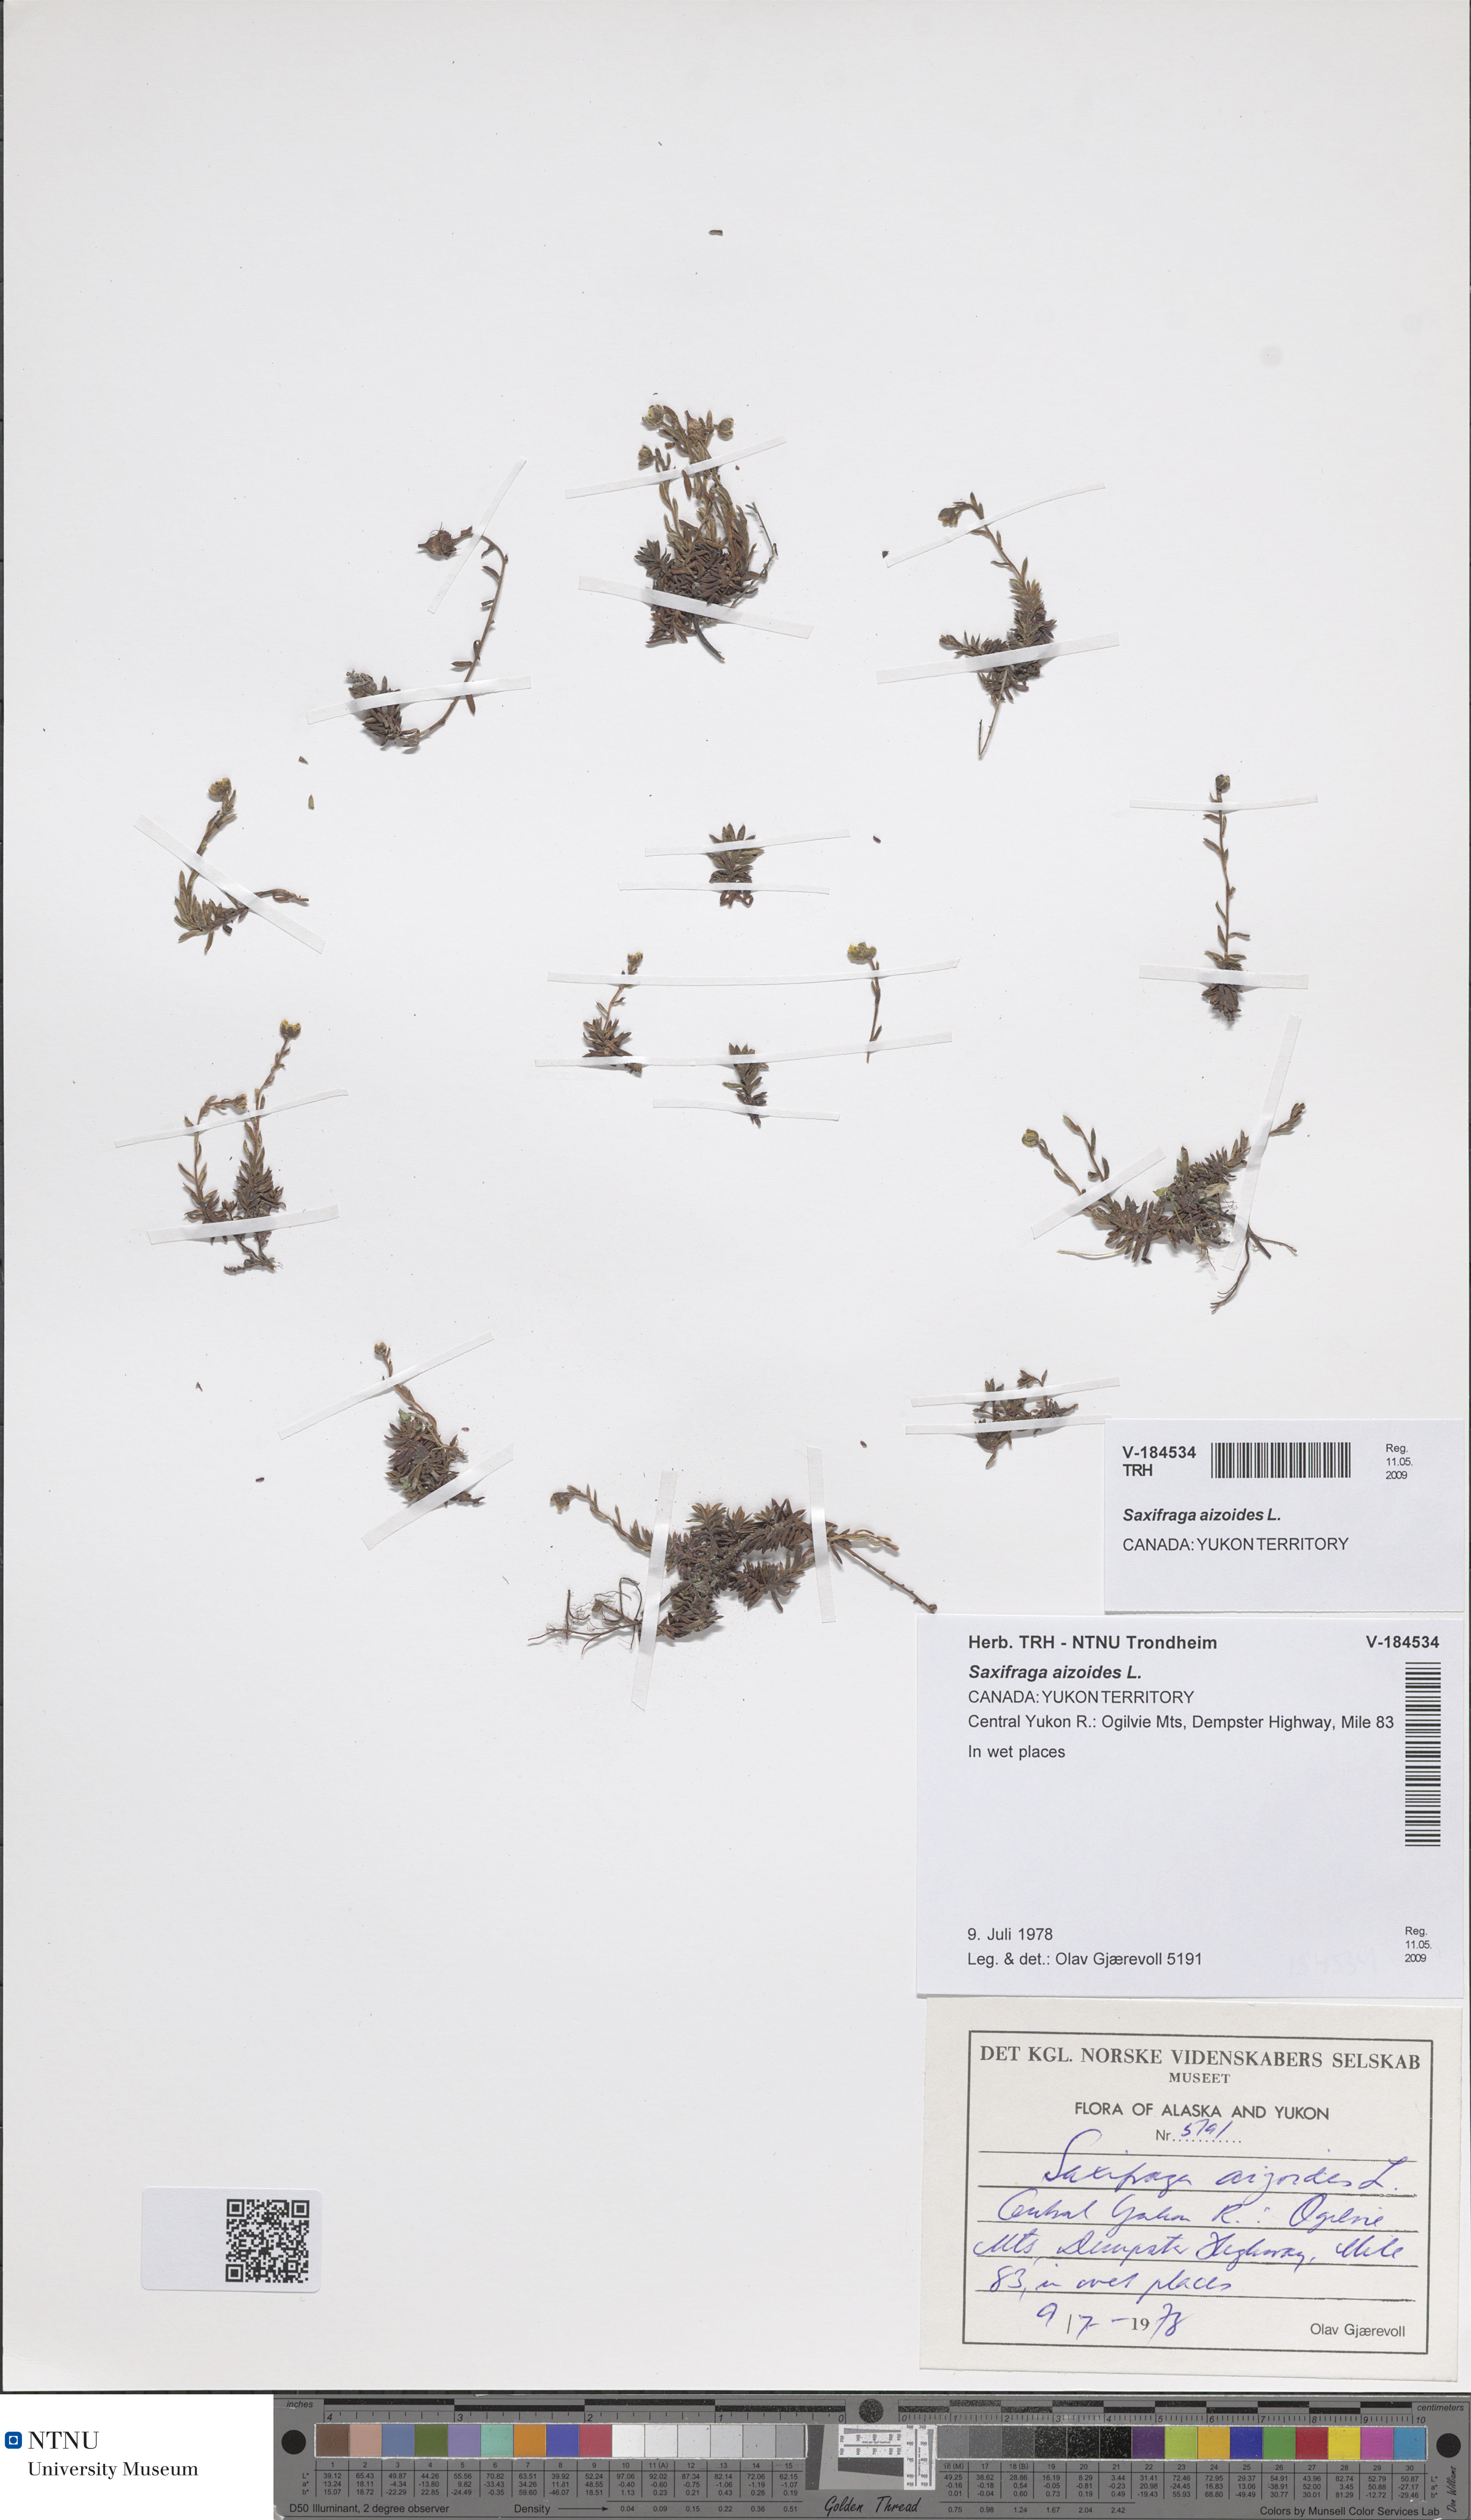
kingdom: Plantae
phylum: Tracheophyta
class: Magnoliopsida
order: Saxifragales
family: Saxifragaceae
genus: Saxifraga
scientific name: Saxifraga aizoides
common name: Yellow mountain saxifrage
